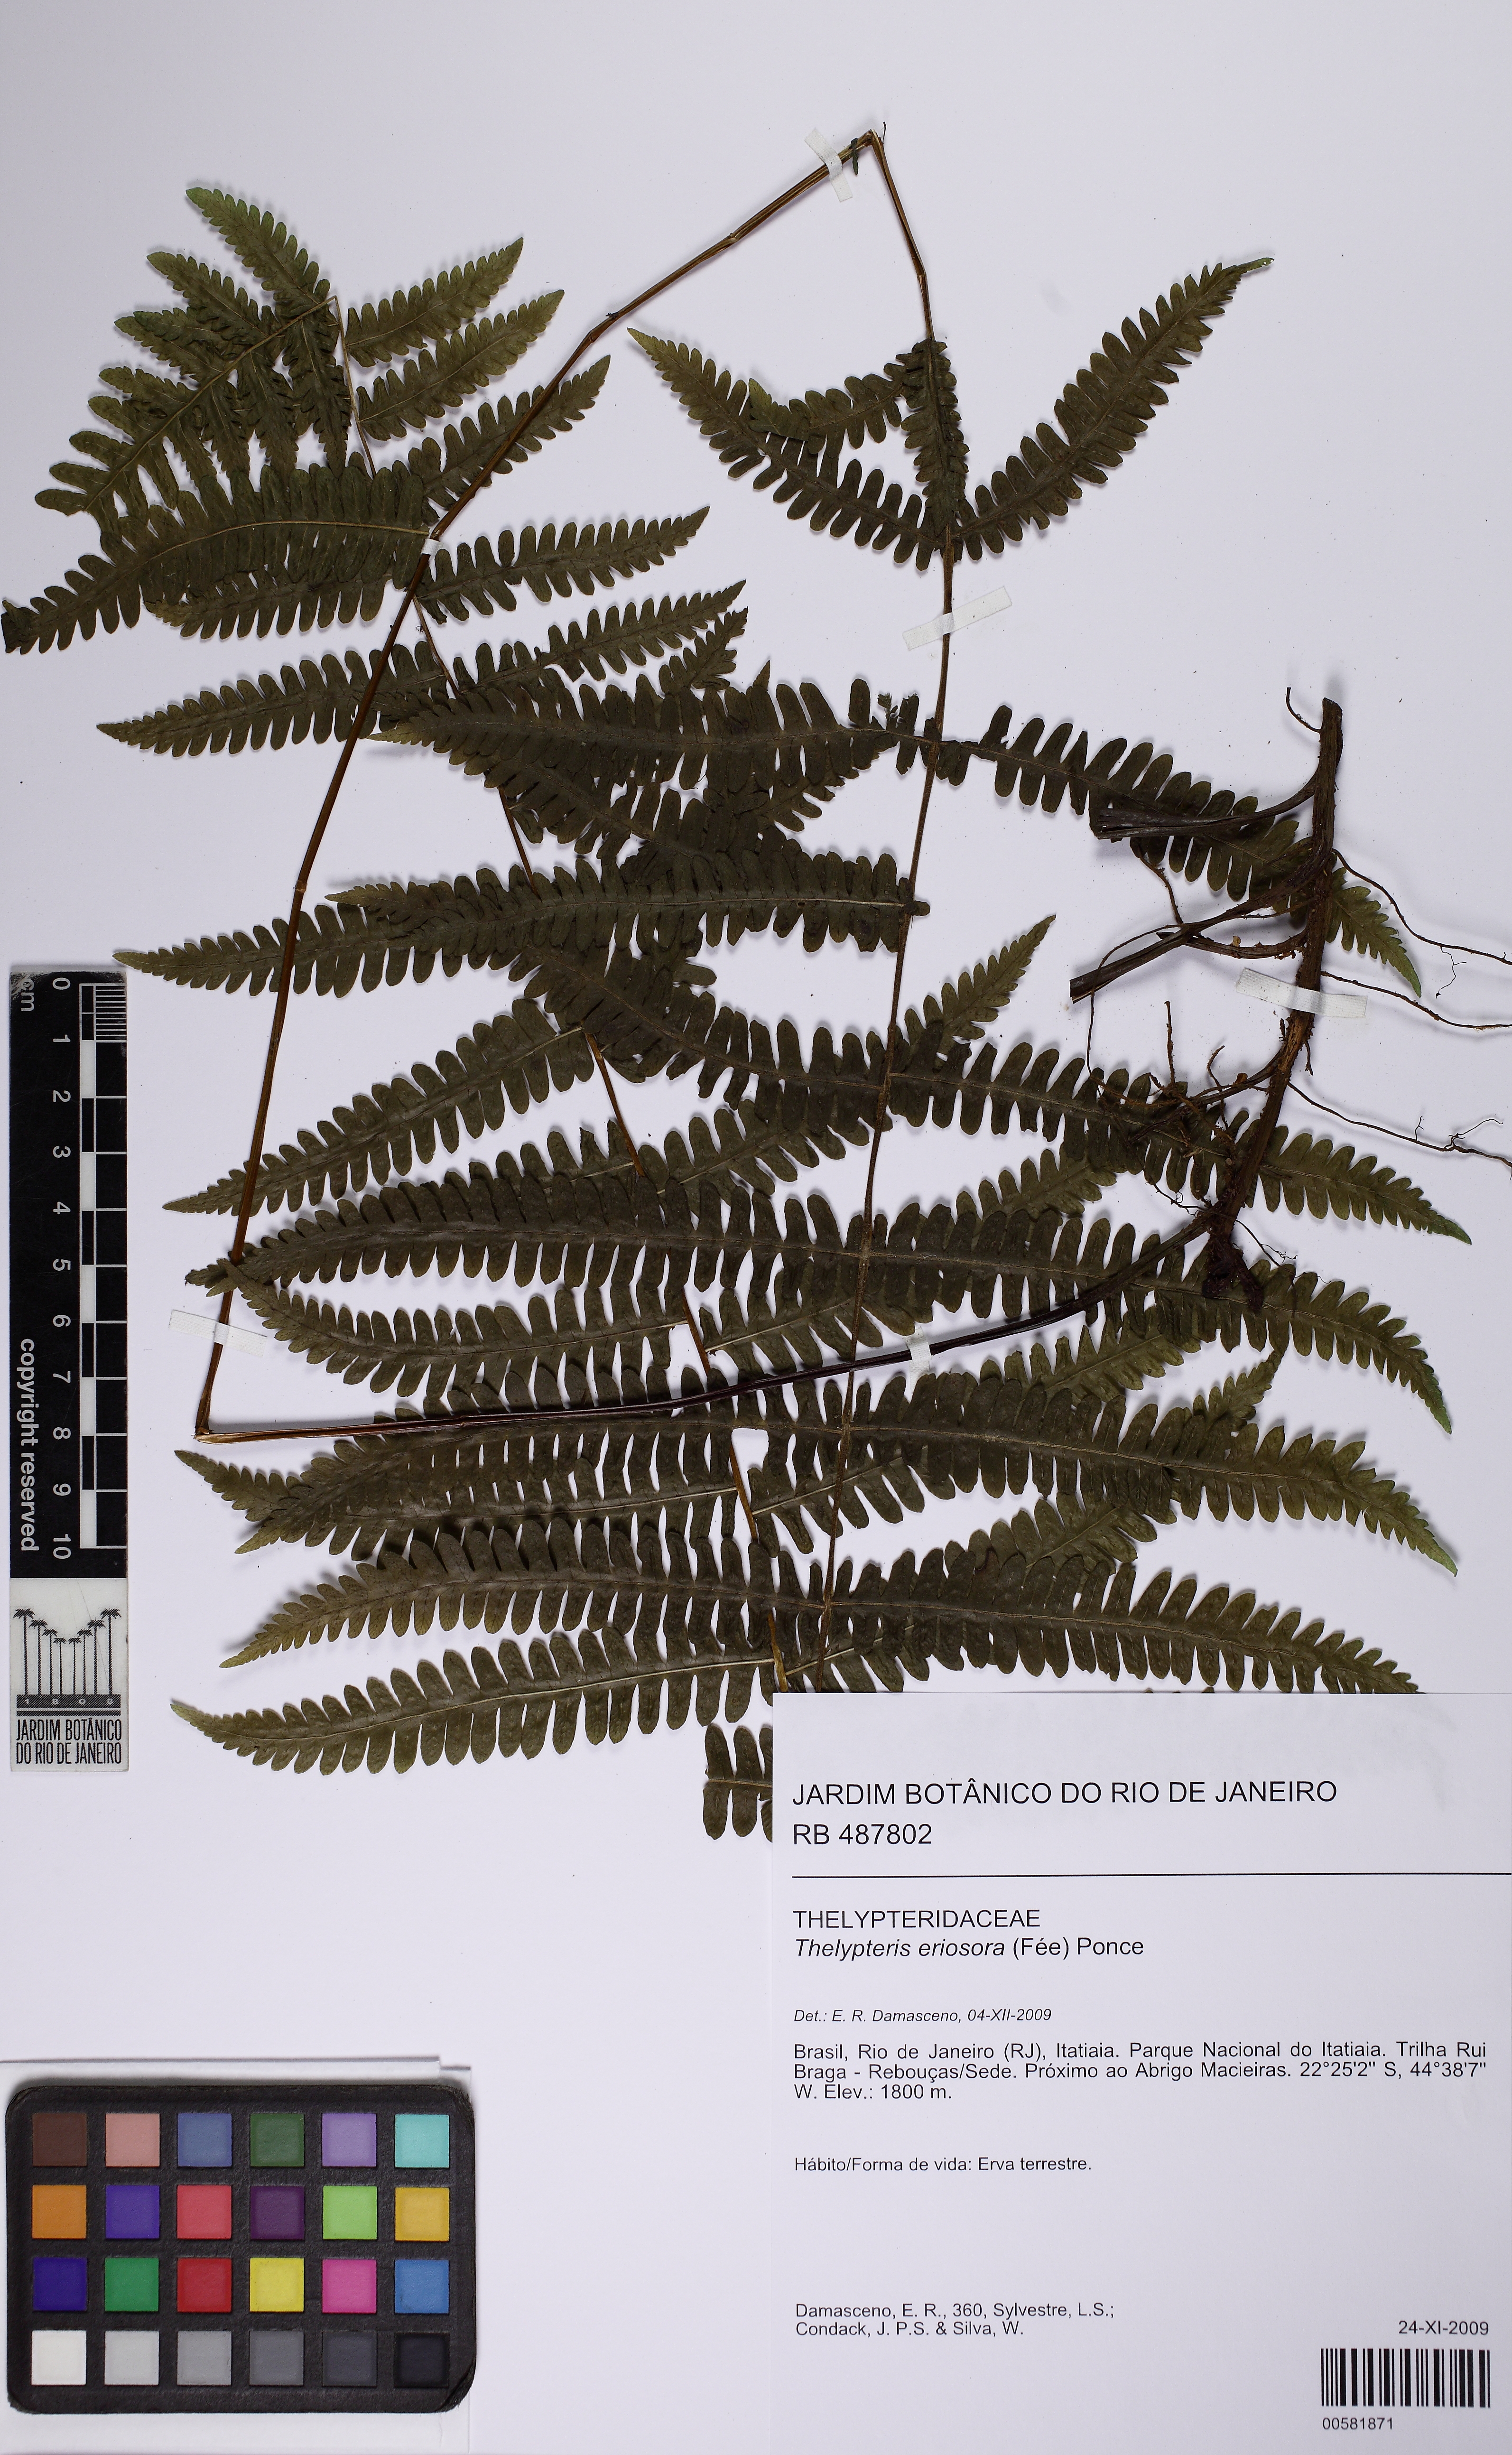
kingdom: Plantae
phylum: Tracheophyta
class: Polypodiopsida
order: Polypodiales
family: Thelypteridaceae
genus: Amauropelta
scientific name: Amauropelta eriosorus
